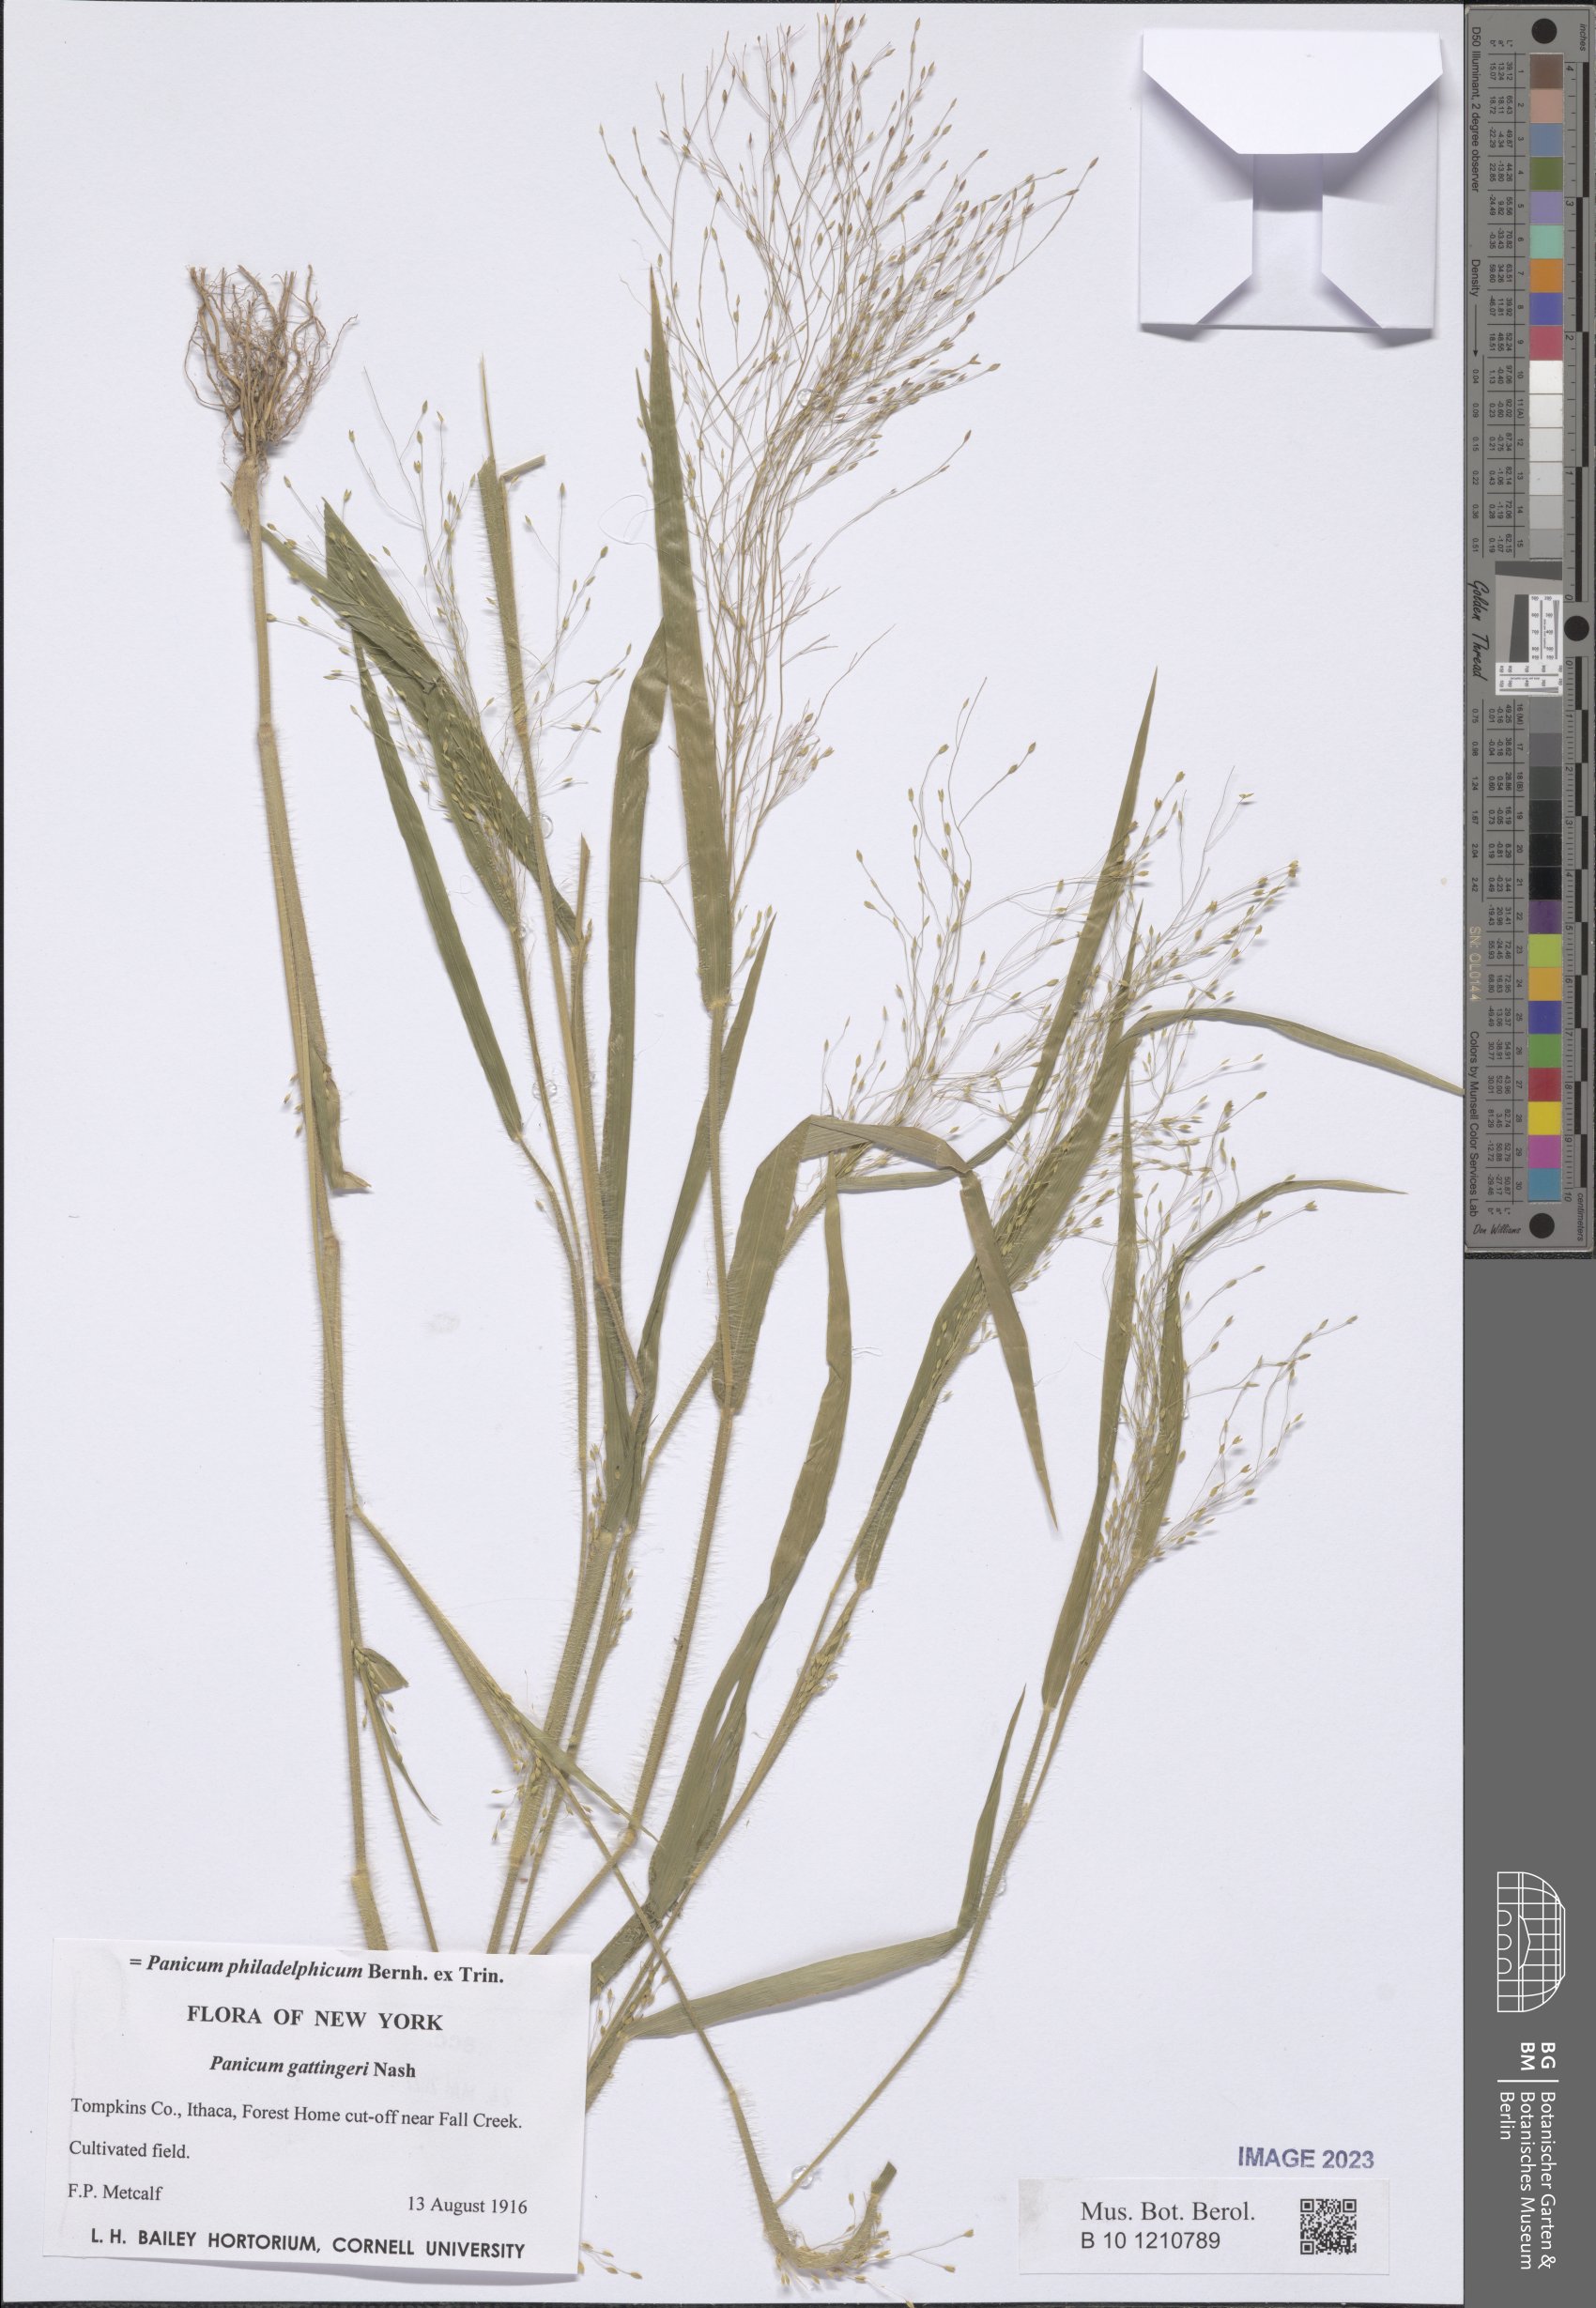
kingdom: Plantae
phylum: Tracheophyta
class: Liliopsida
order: Poales
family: Poaceae
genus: Panicum
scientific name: Panicum philadelphicum
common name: Philadelphia witchgrass
